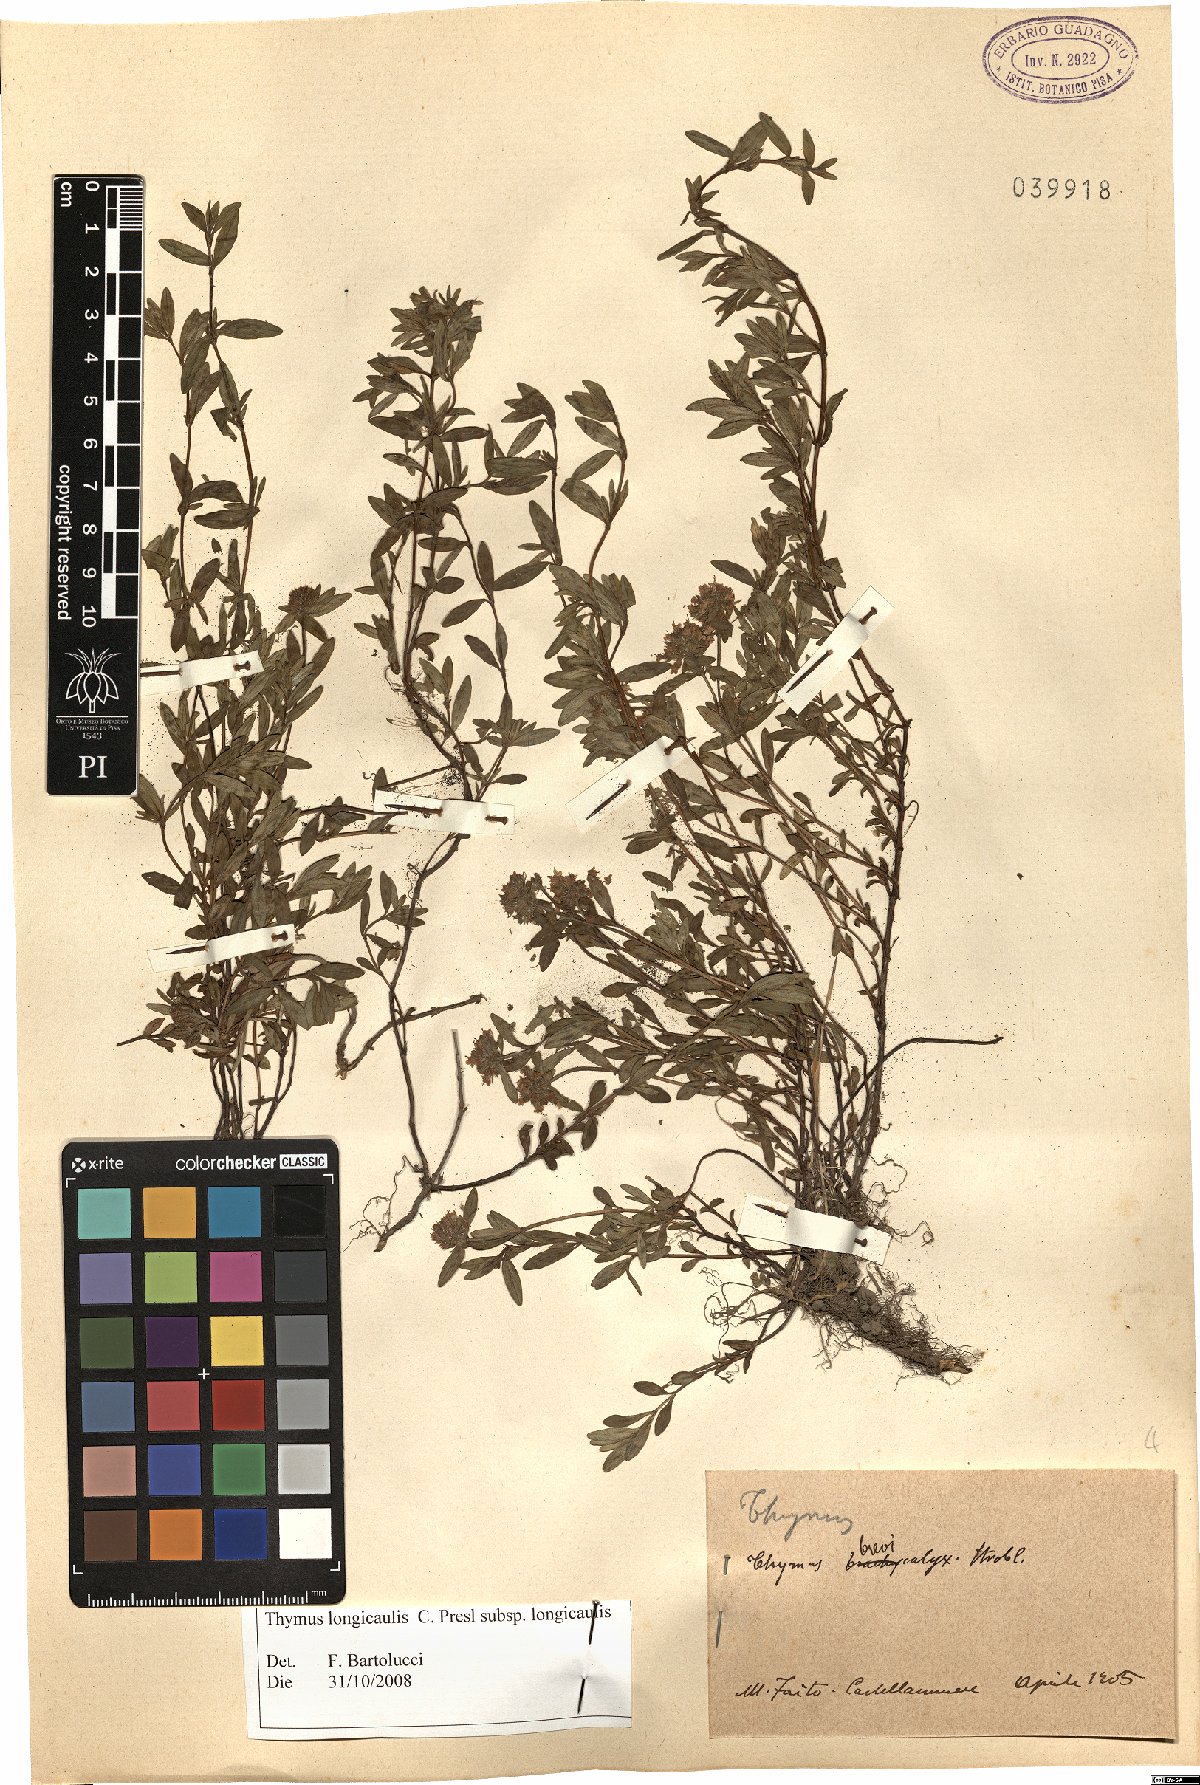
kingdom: Plantae
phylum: Tracheophyta
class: Magnoliopsida
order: Lamiales
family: Lamiaceae
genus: Thymus
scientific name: Thymus longicaulis
